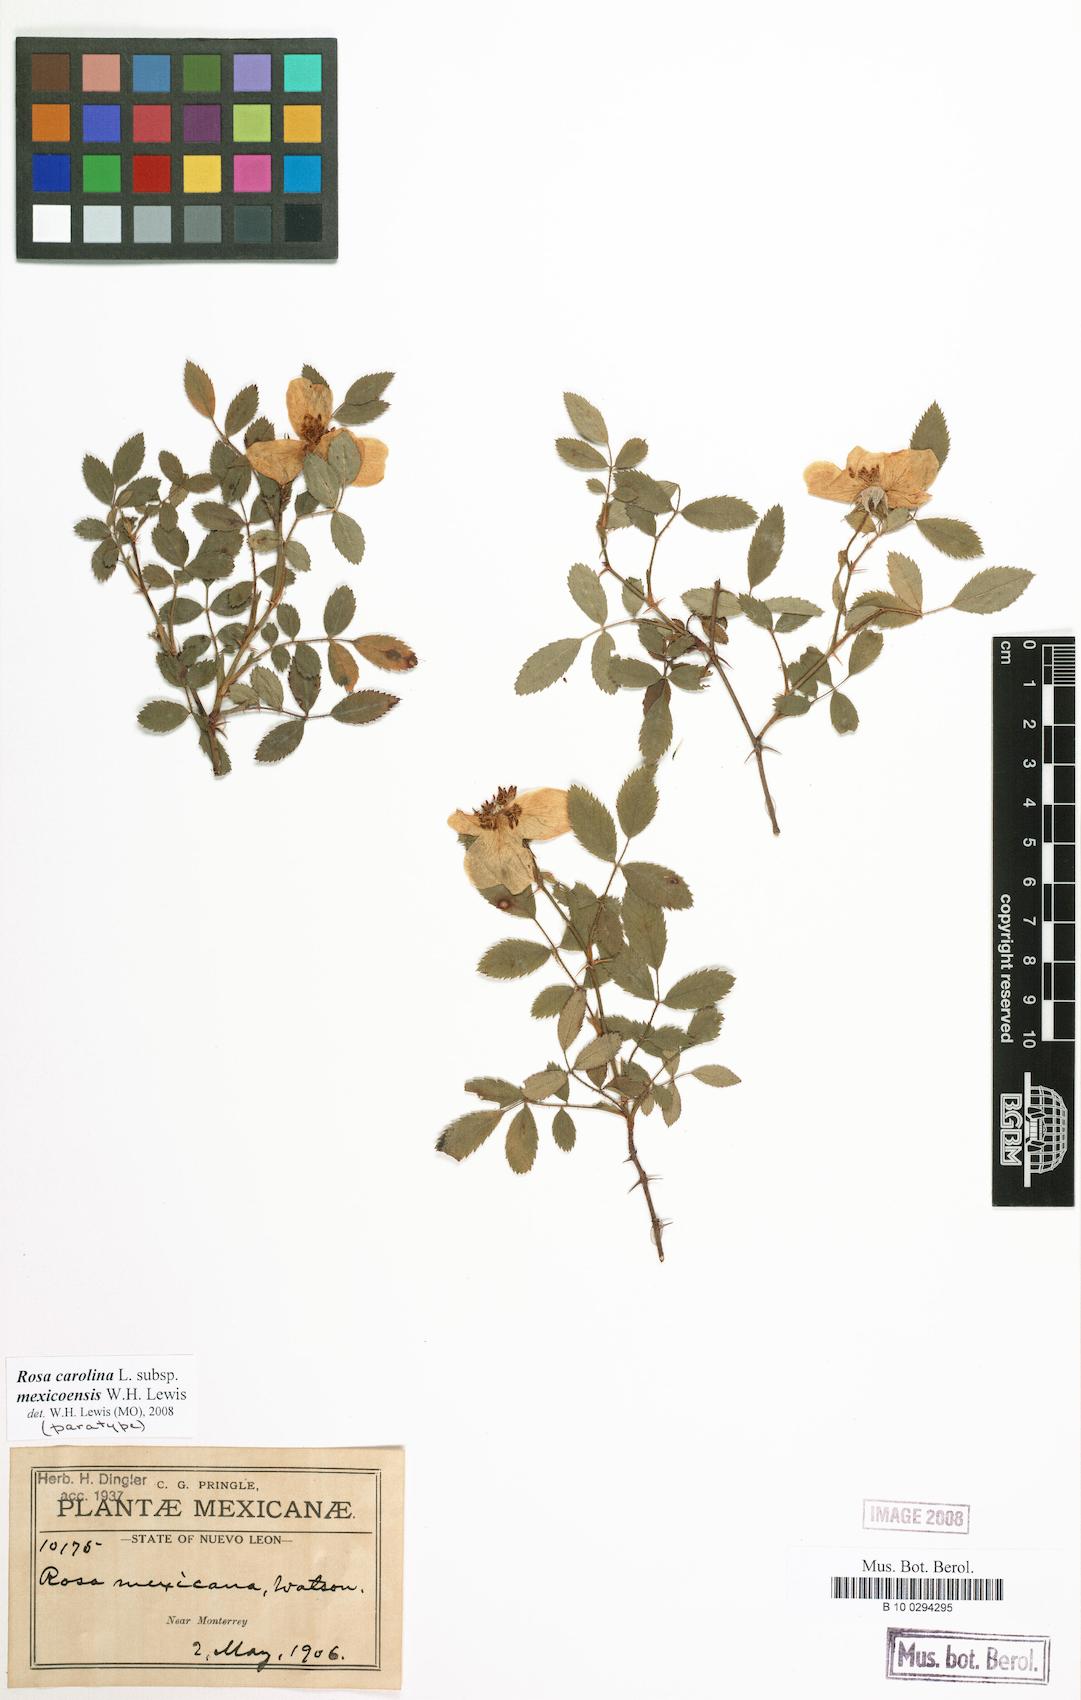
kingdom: Plantae
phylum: Tracheophyta
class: Magnoliopsida
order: Rosales
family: Rosaceae
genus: Rosa
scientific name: Rosa carolina
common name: Pasture rose
